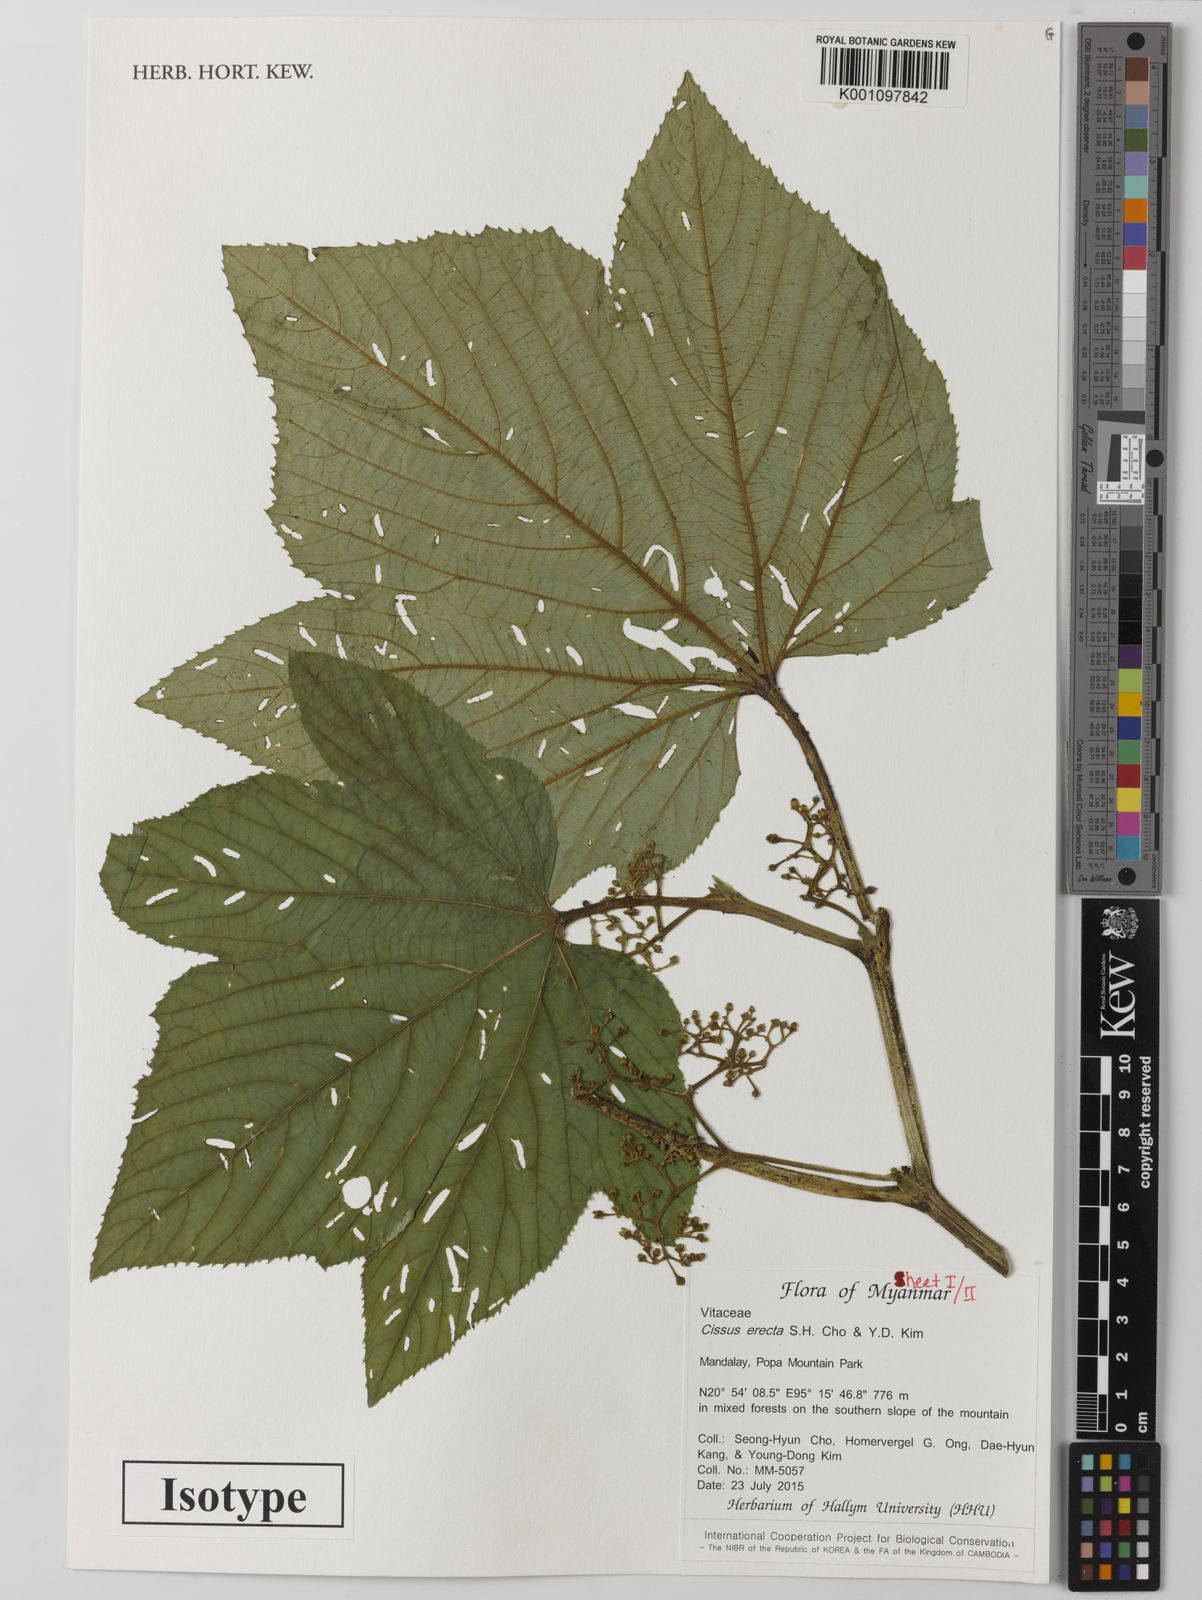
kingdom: Plantae
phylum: Tracheophyta
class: Magnoliopsida
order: Vitales
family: Vitaceae
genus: Cissus
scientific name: Cissus erecta
